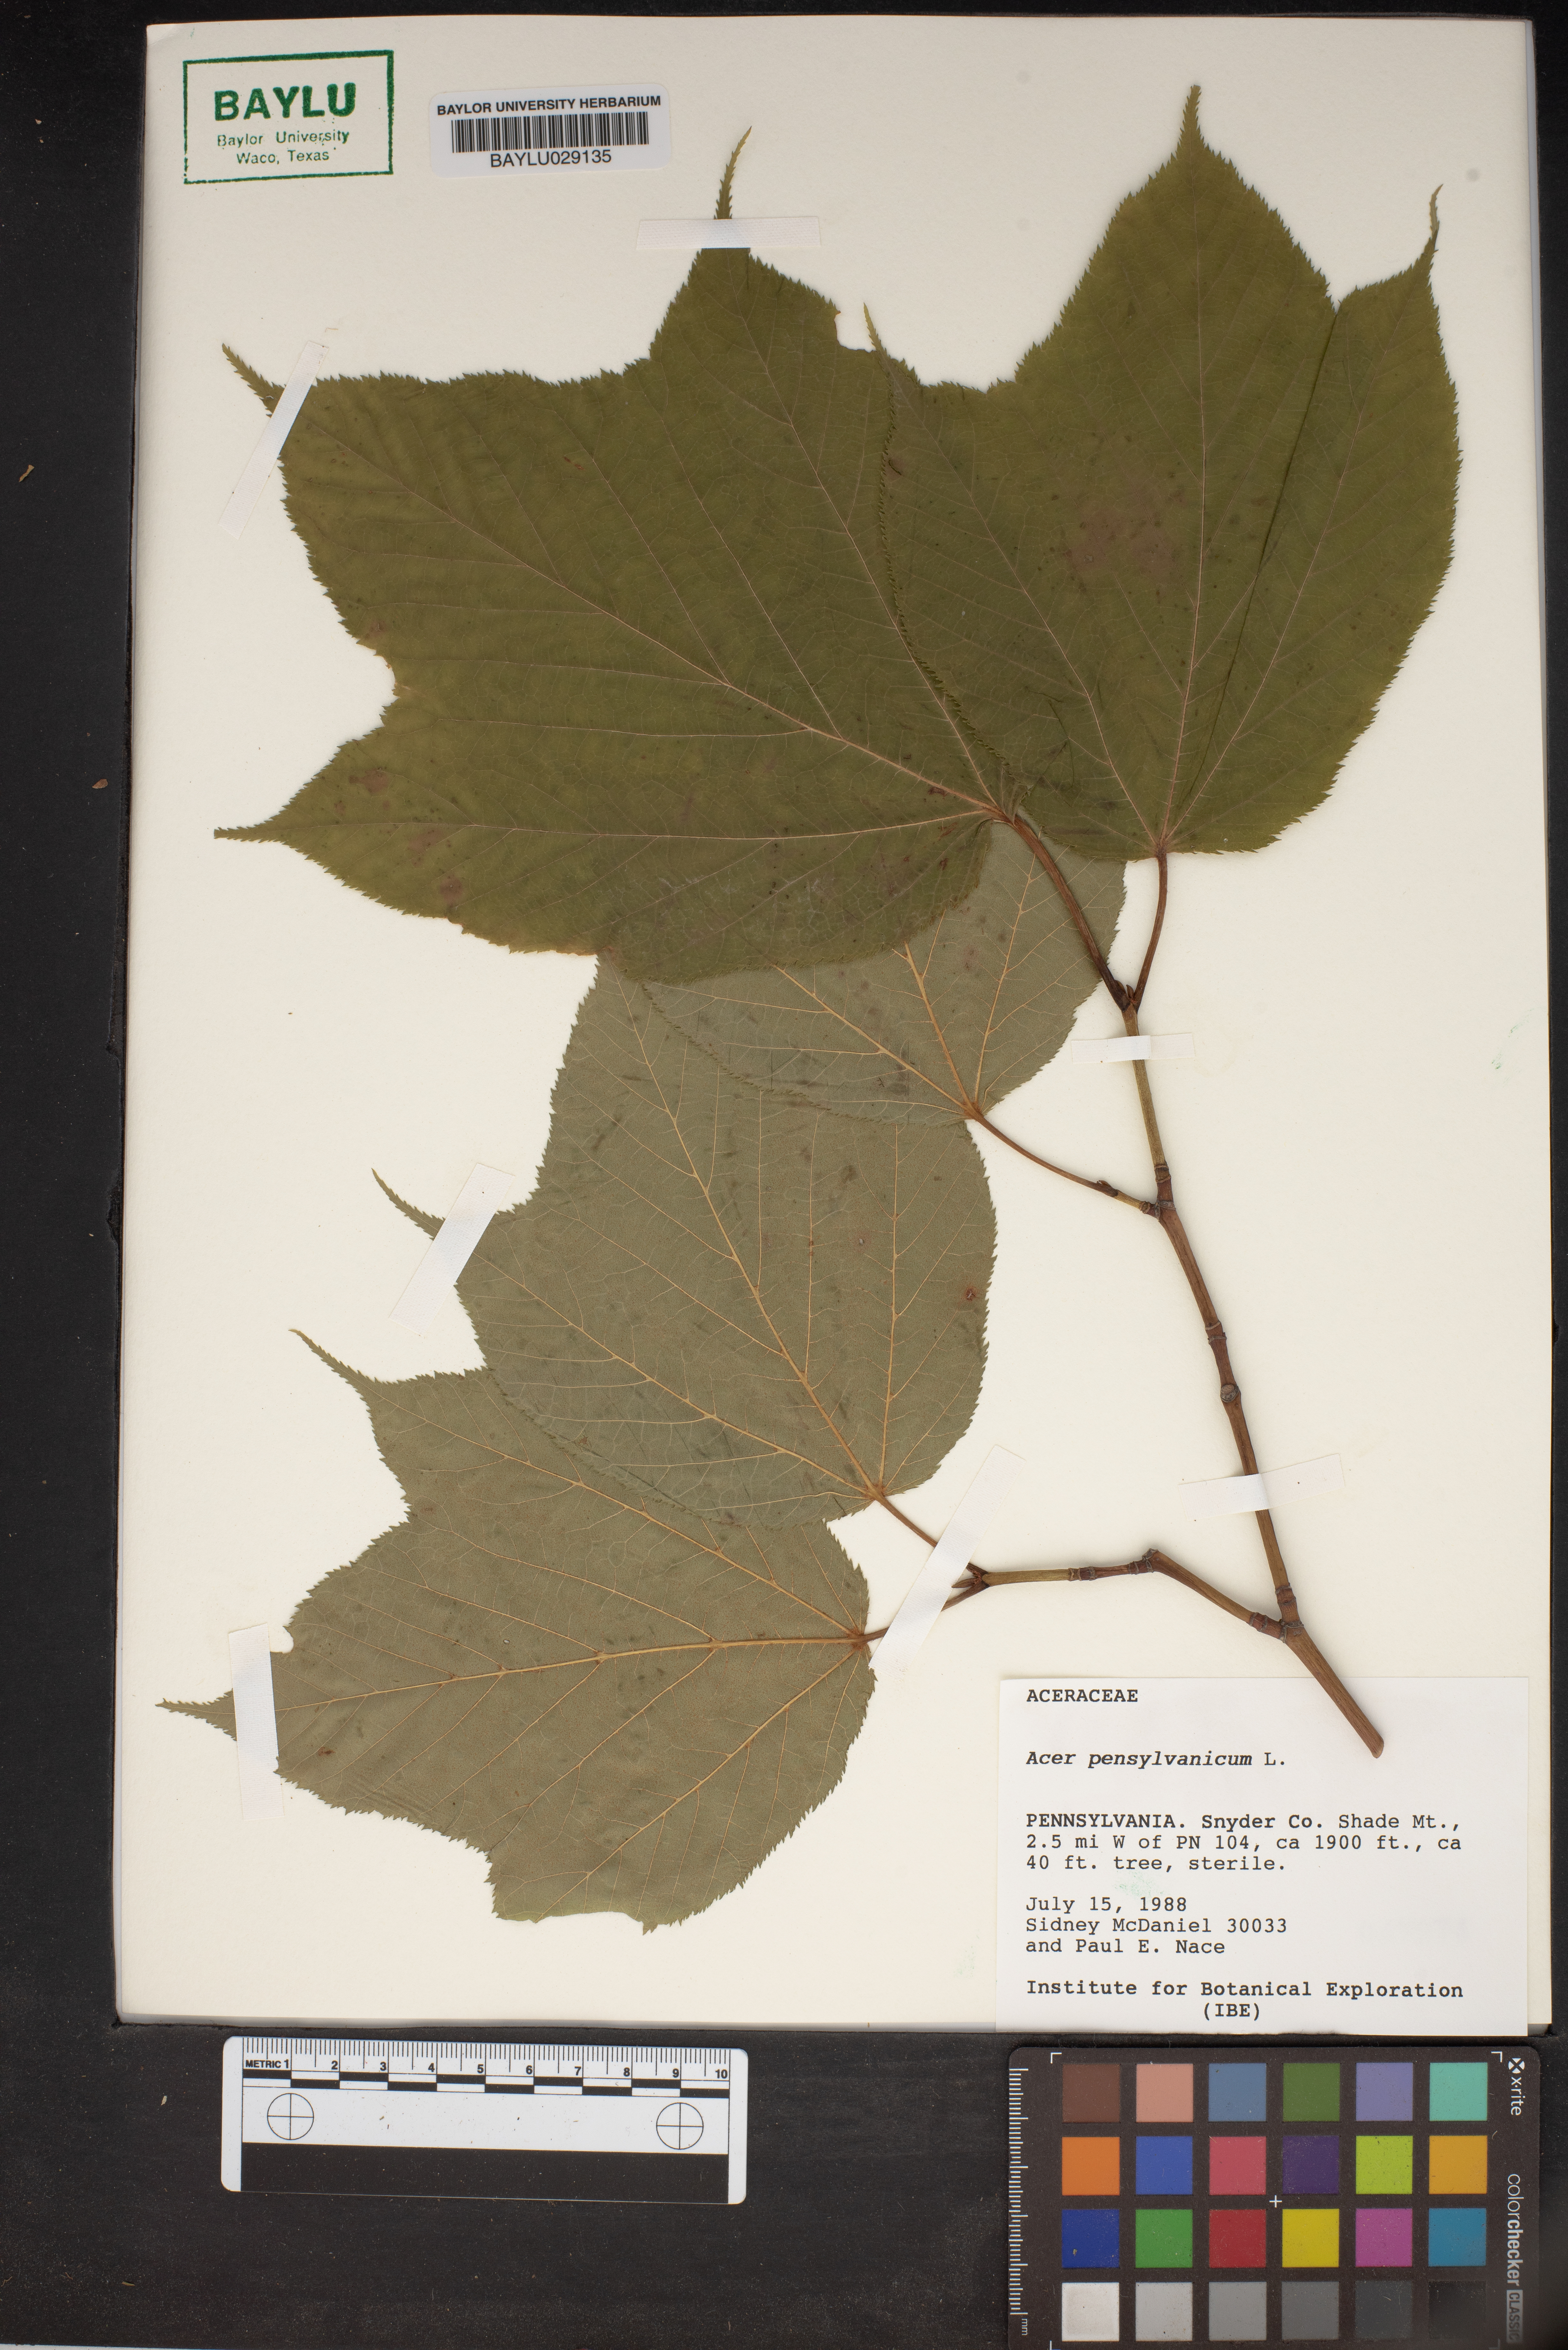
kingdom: Plantae
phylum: Tracheophyta
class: Magnoliopsida
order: Sapindales
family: Sapindaceae
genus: Acer
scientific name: Acer pensylvanicum
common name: Moosewood
